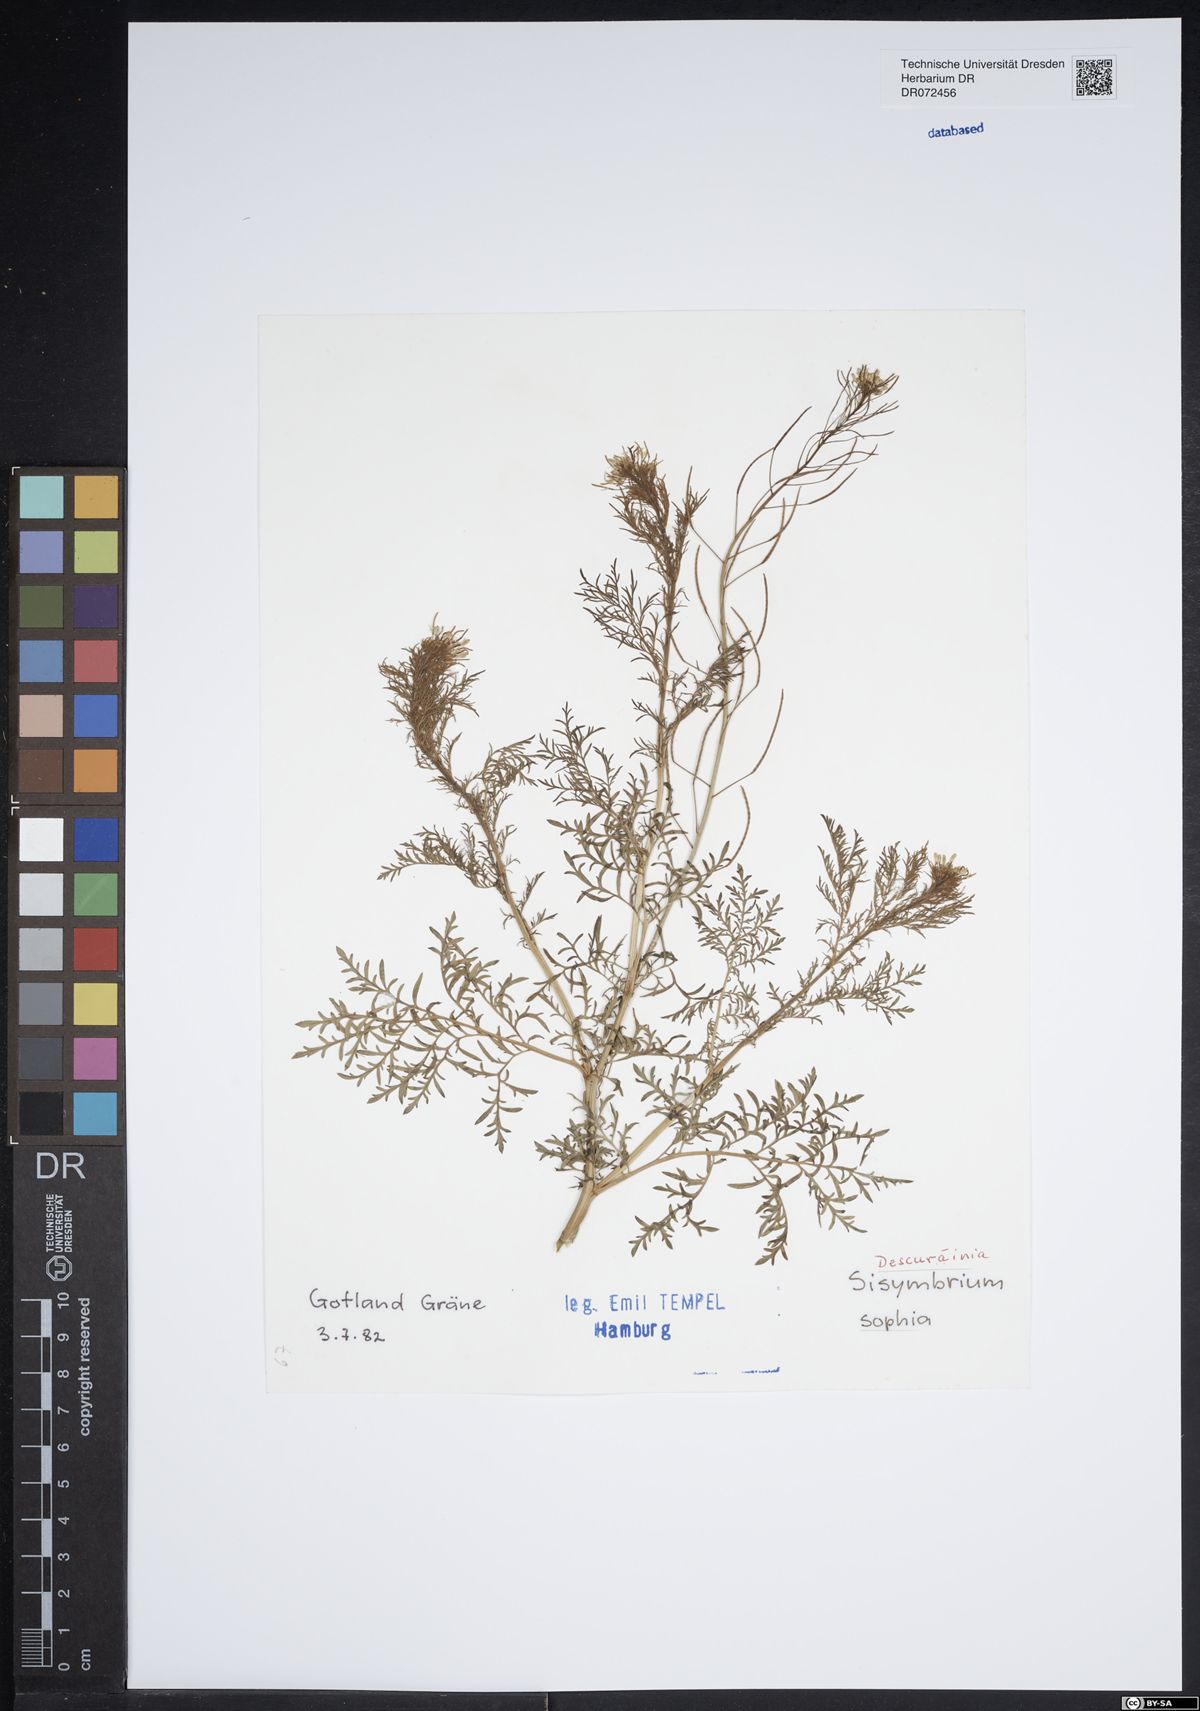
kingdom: Plantae
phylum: Tracheophyta
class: Magnoliopsida
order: Brassicales
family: Brassicaceae
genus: Descurainia
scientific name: Descurainia sophia
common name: Flixweed
